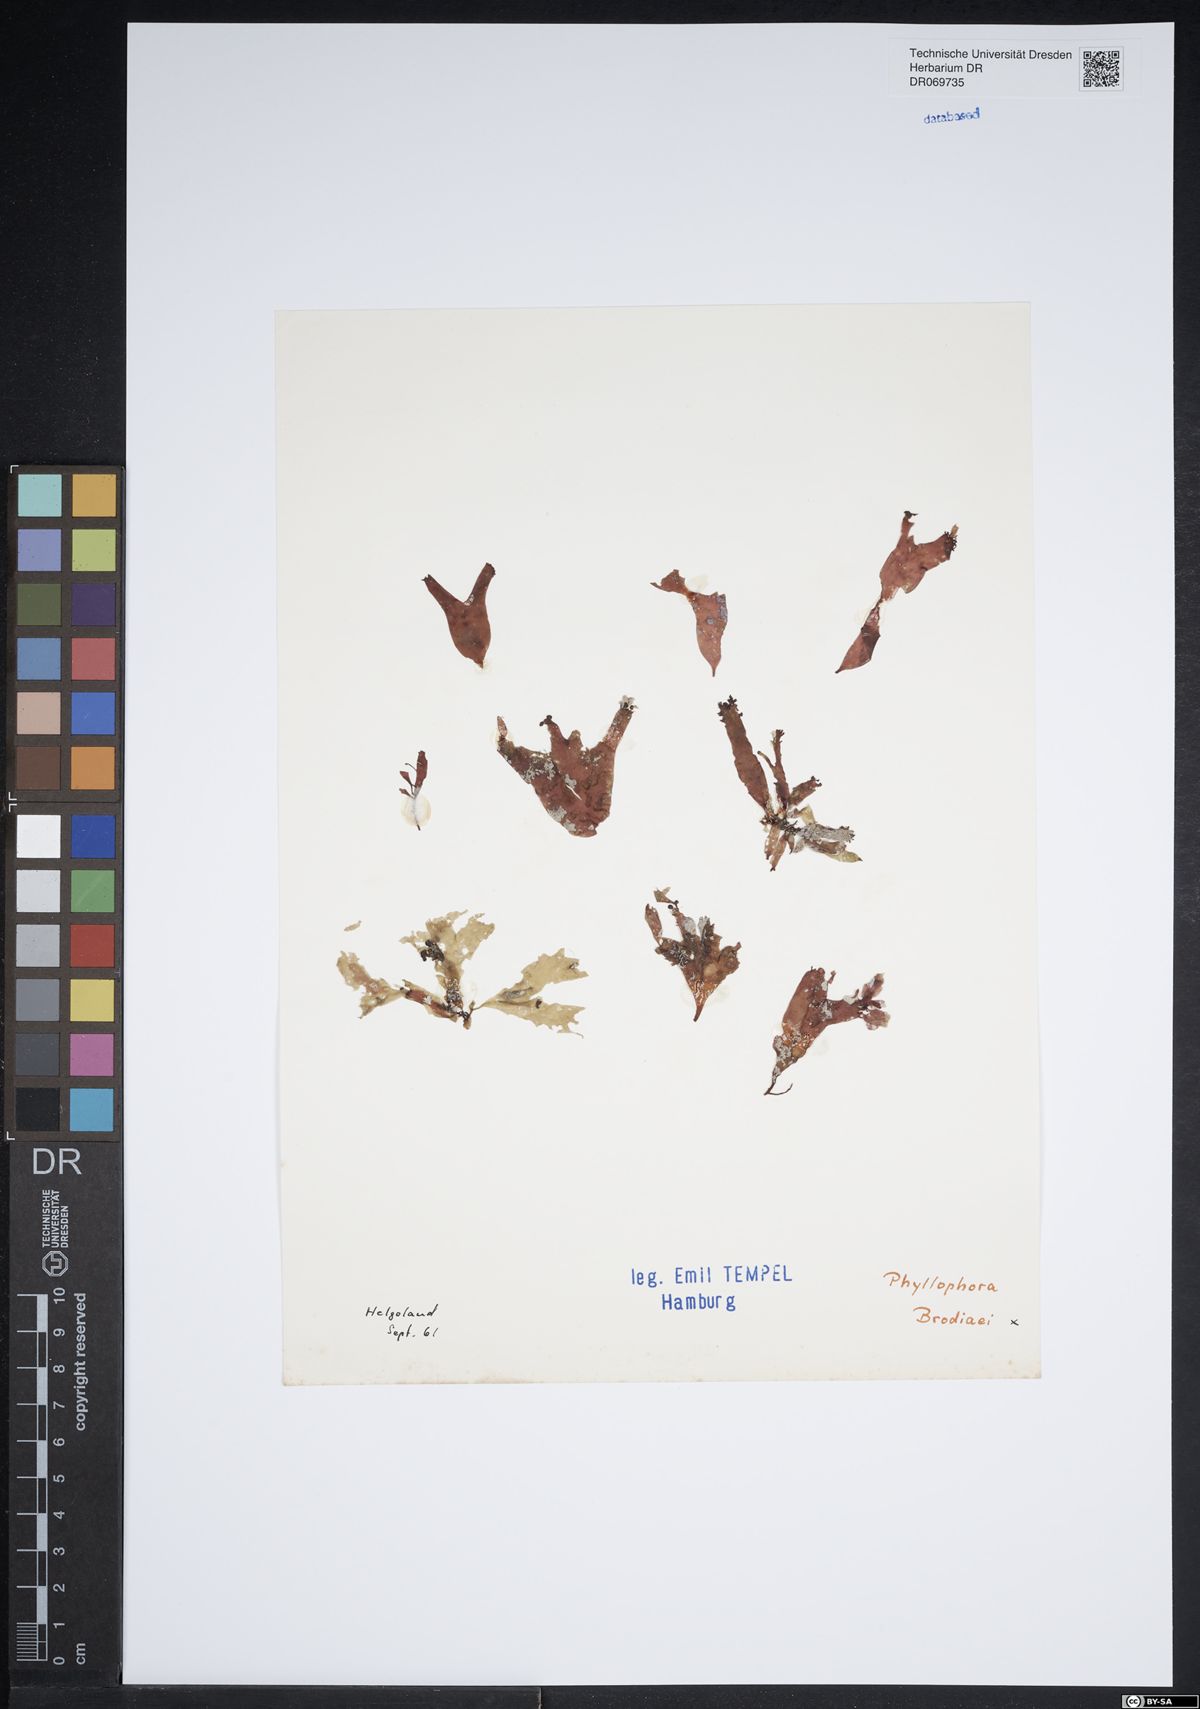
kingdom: Plantae
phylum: Rhodophyta
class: Florideophyceae
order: Gigartinales
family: Phyllophoraceae
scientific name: Phyllophoraceae
